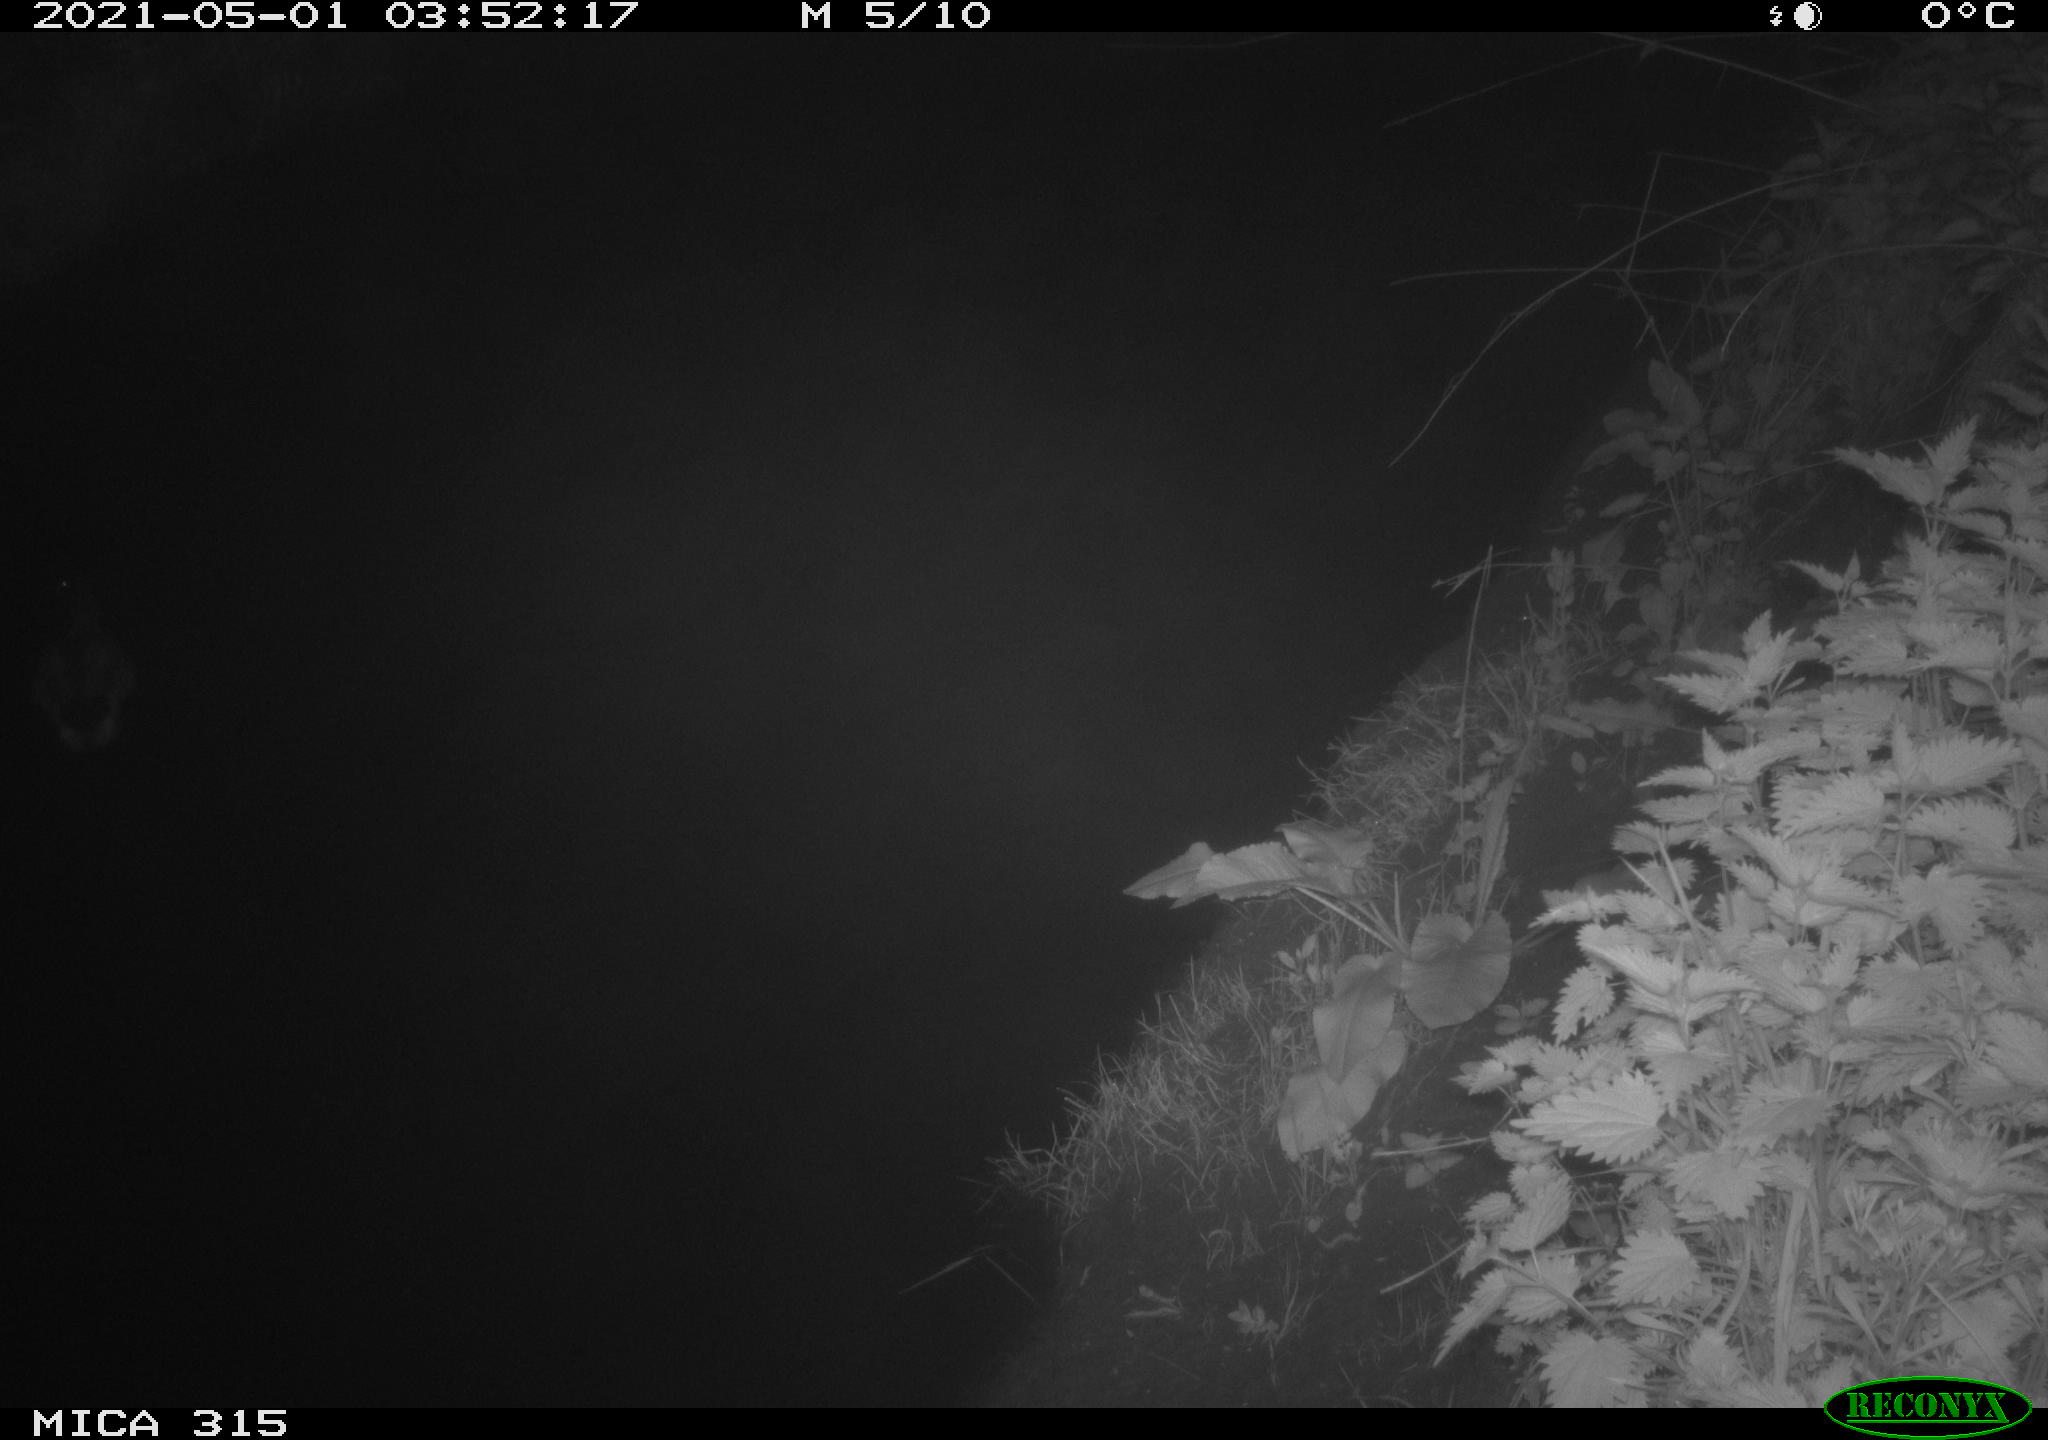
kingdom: Animalia
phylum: Chordata
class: Aves
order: Anseriformes
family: Anatidae
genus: Anas
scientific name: Anas
